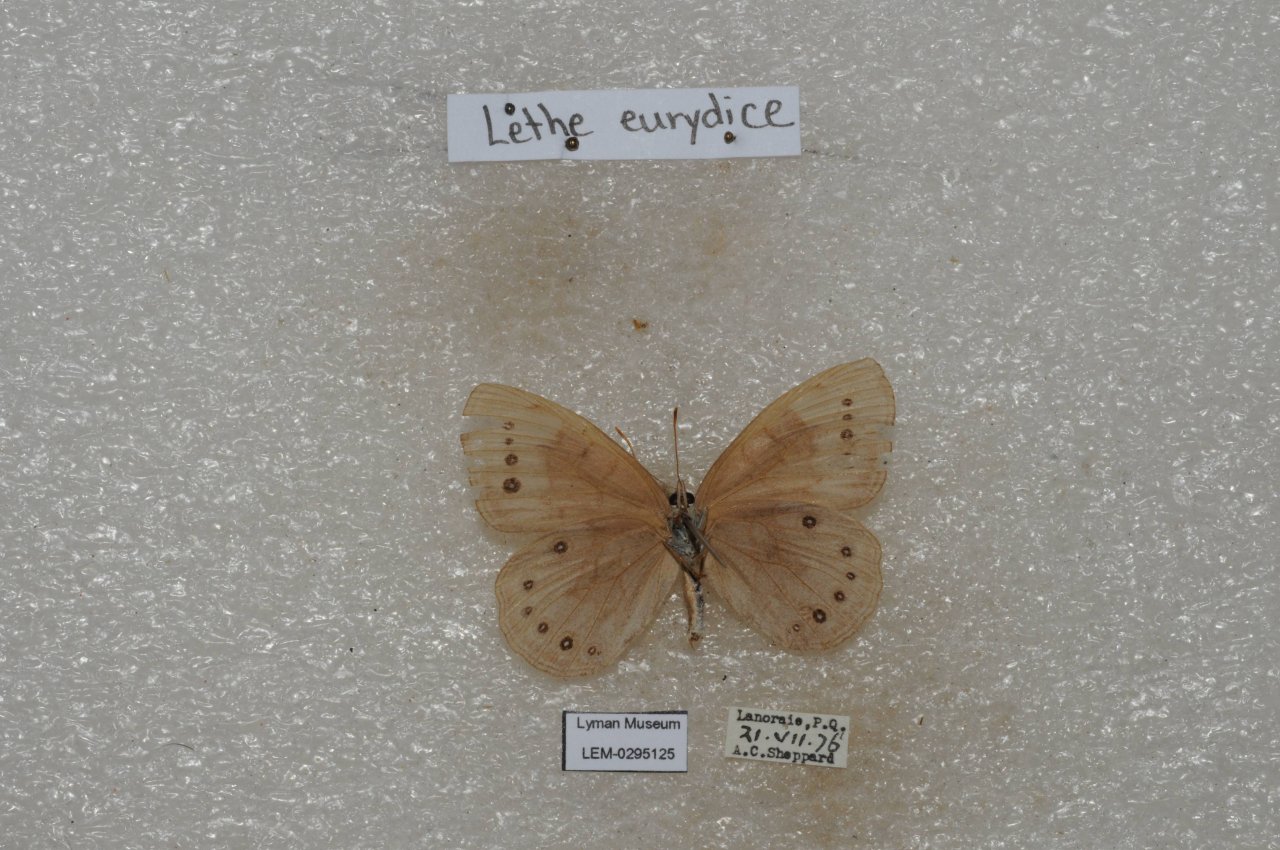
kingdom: Animalia
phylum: Arthropoda
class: Insecta
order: Lepidoptera
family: Nymphalidae
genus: Lethe
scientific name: Lethe eurydice
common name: Eyed Brown
